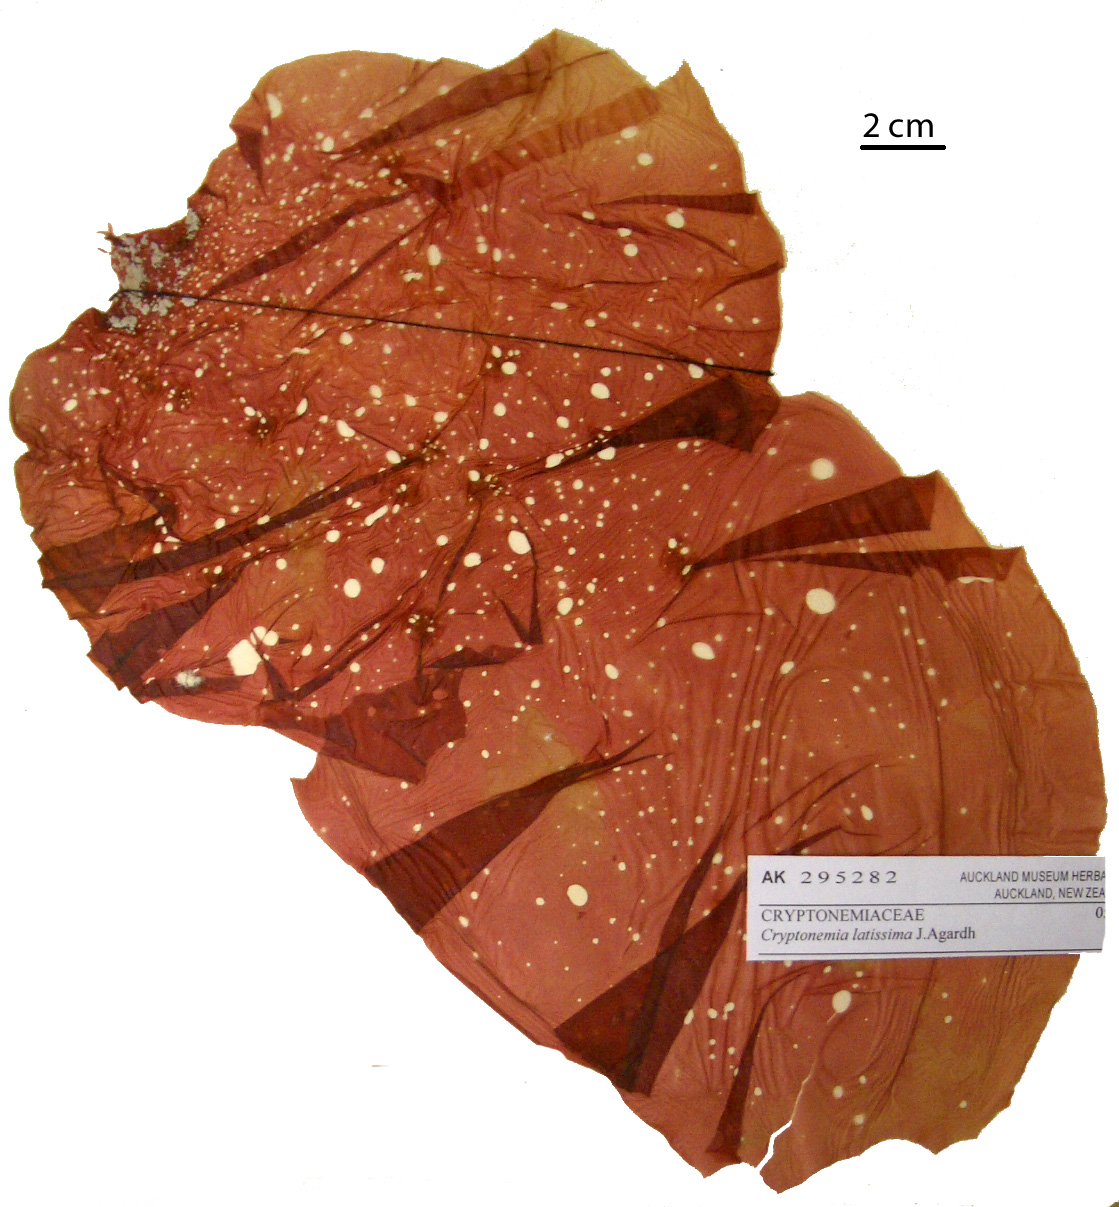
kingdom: Plantae
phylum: Rhodophyta
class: Florideophyceae
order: Halymeniales
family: Halymeniaceae
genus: Cryptonemia
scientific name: Cryptonemia latissima
